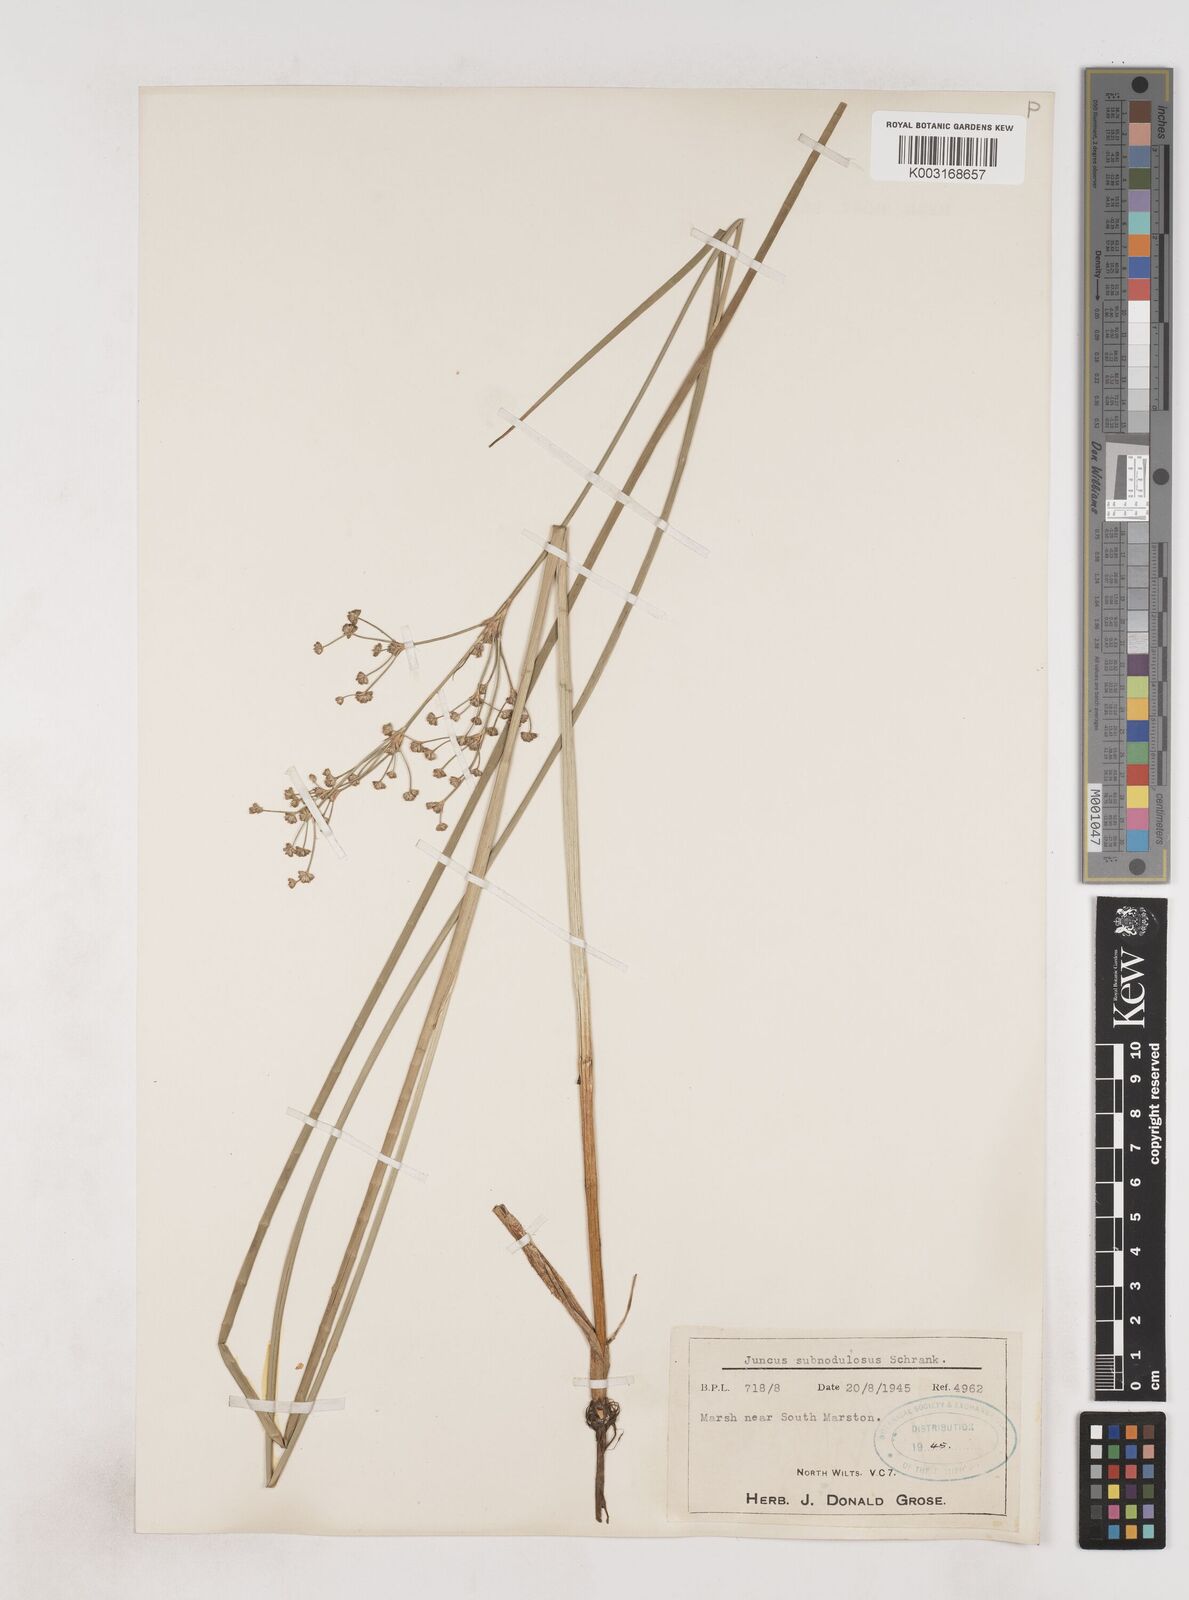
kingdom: Plantae
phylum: Tracheophyta
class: Liliopsida
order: Poales
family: Juncaceae
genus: Juncus
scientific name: Juncus subnodulosus
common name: Blunt-flowered rush
